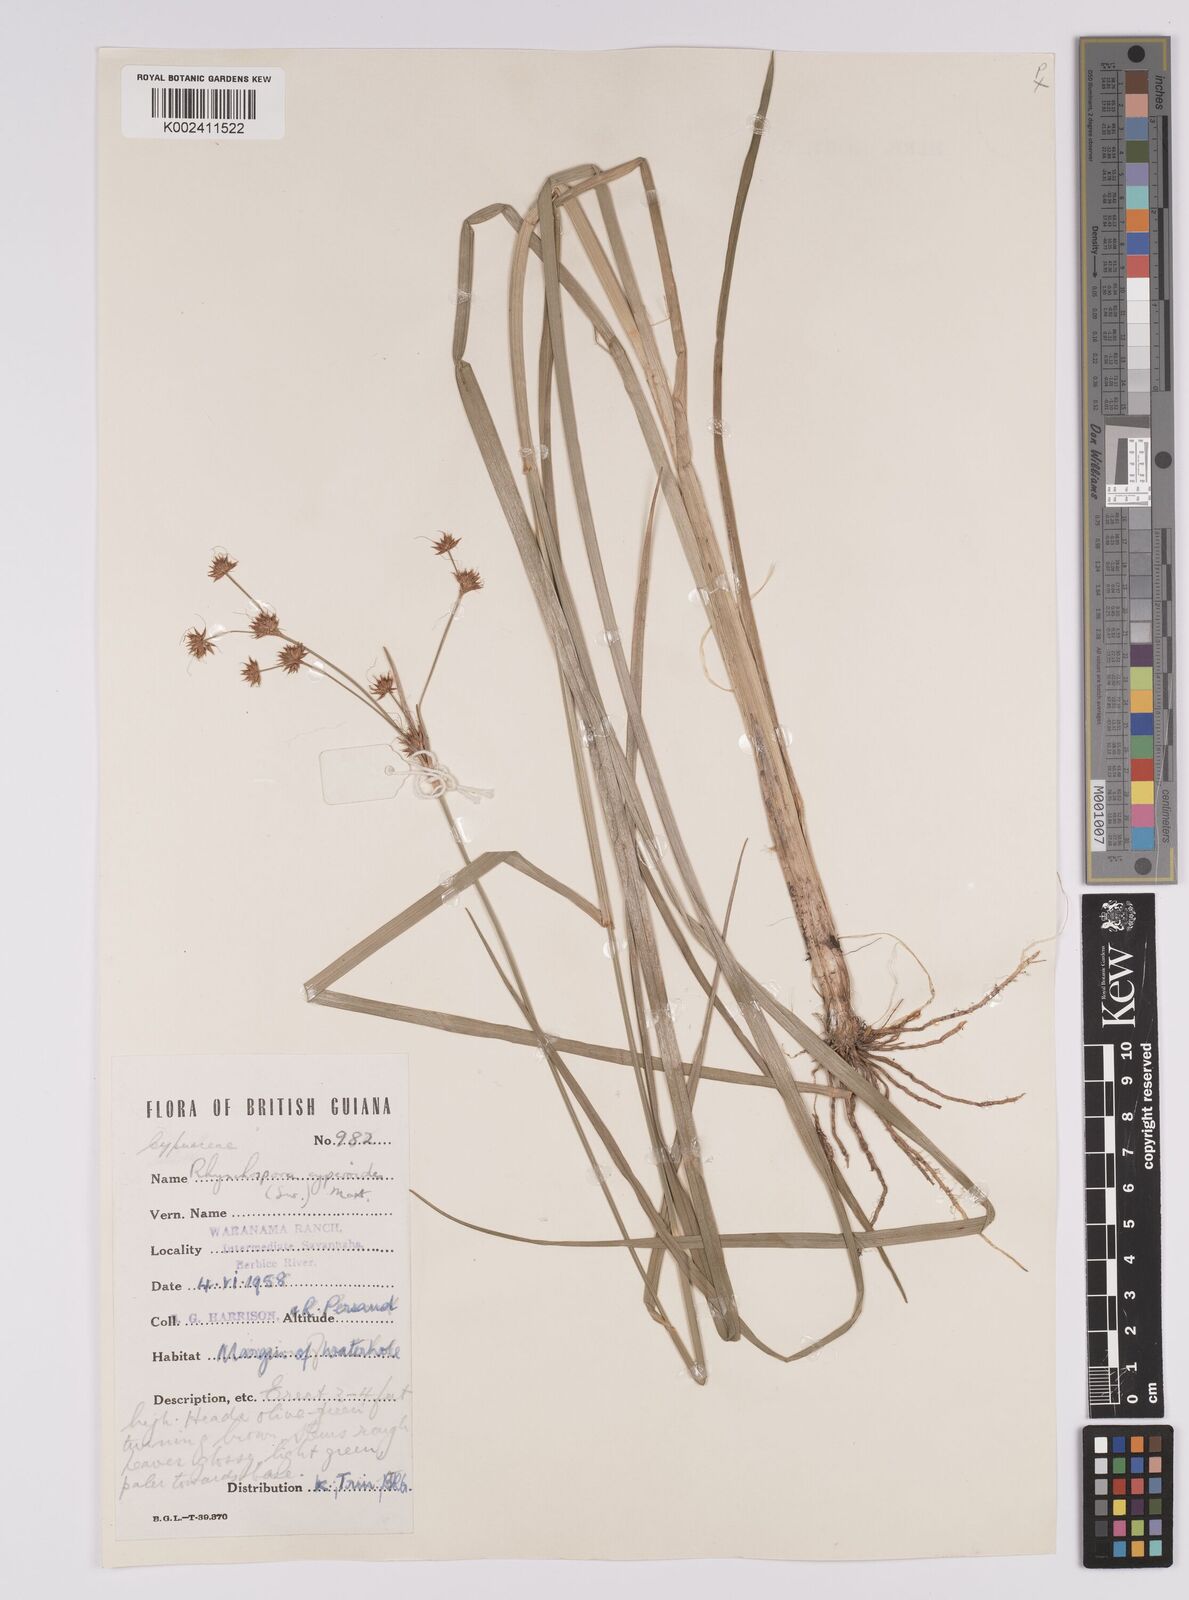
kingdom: Plantae
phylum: Tracheophyta
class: Liliopsida
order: Poales
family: Cyperaceae
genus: Rhynchospora
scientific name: Rhynchospora holoschoenoides
